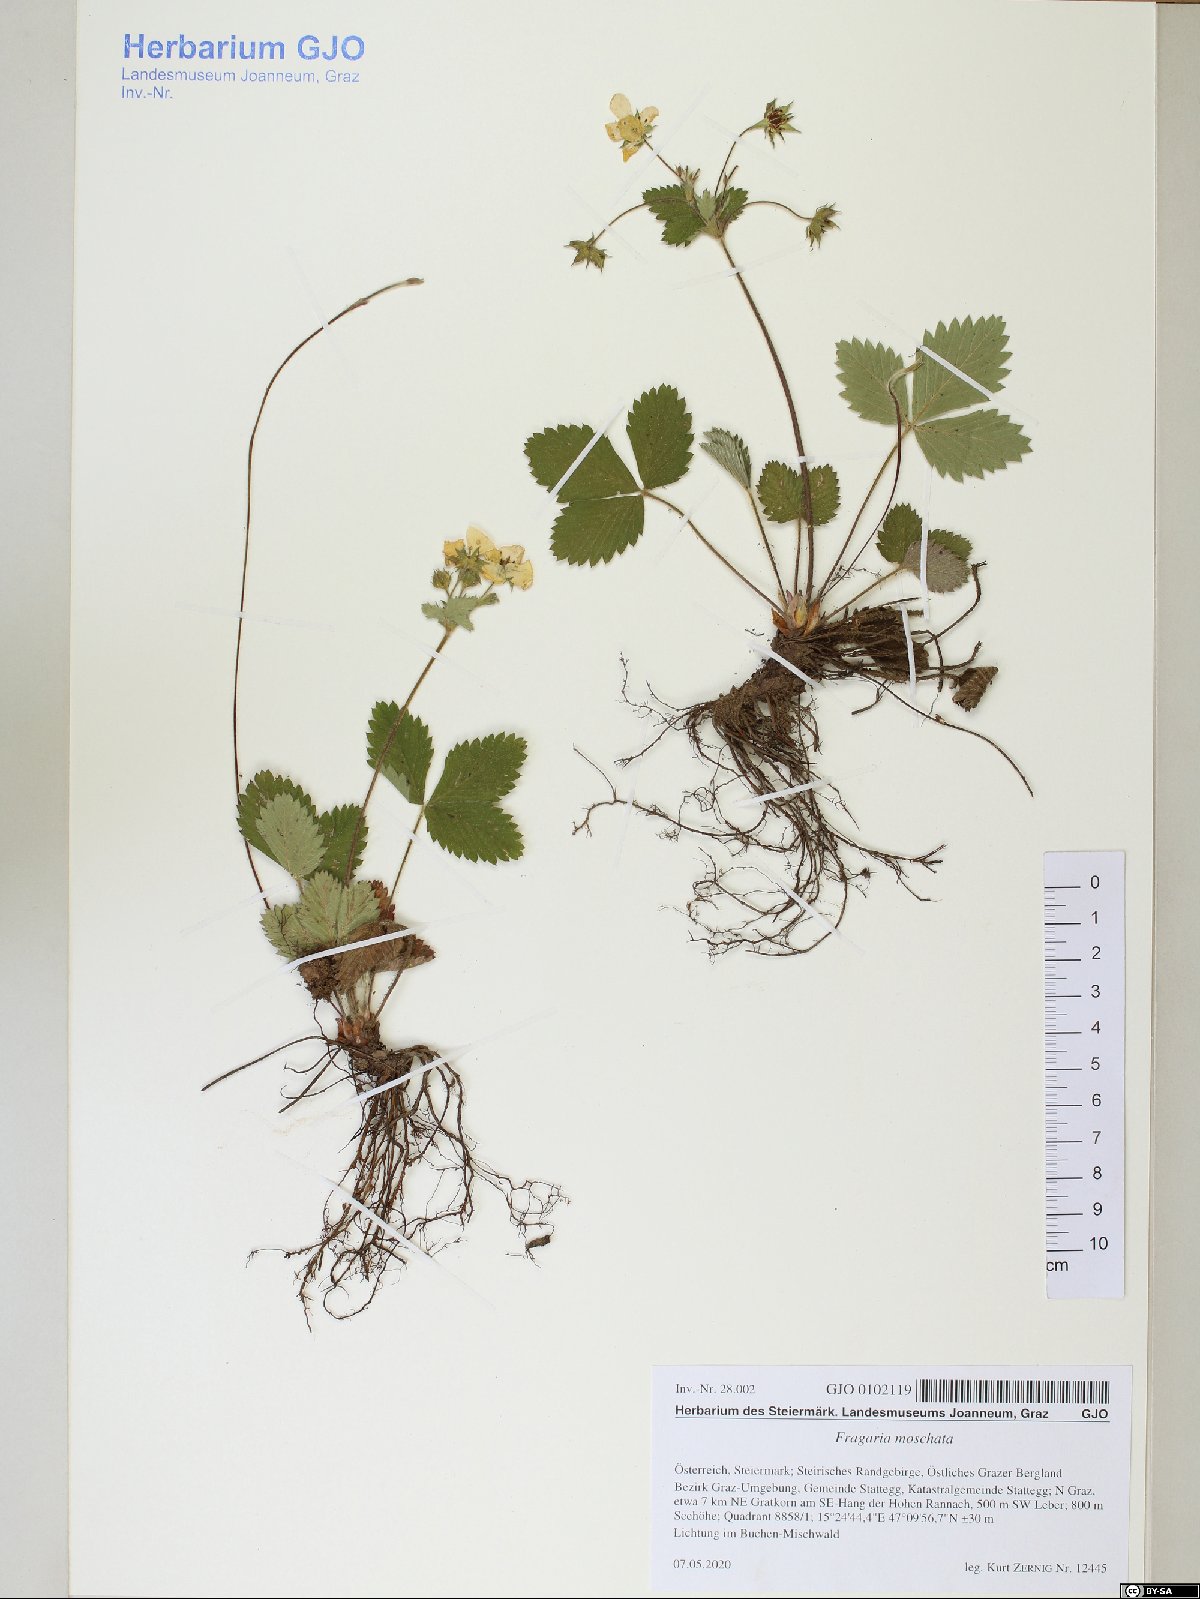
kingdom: Plantae
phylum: Tracheophyta
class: Magnoliopsida
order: Rosales
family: Rosaceae
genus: Fragaria
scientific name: Fragaria moschata
